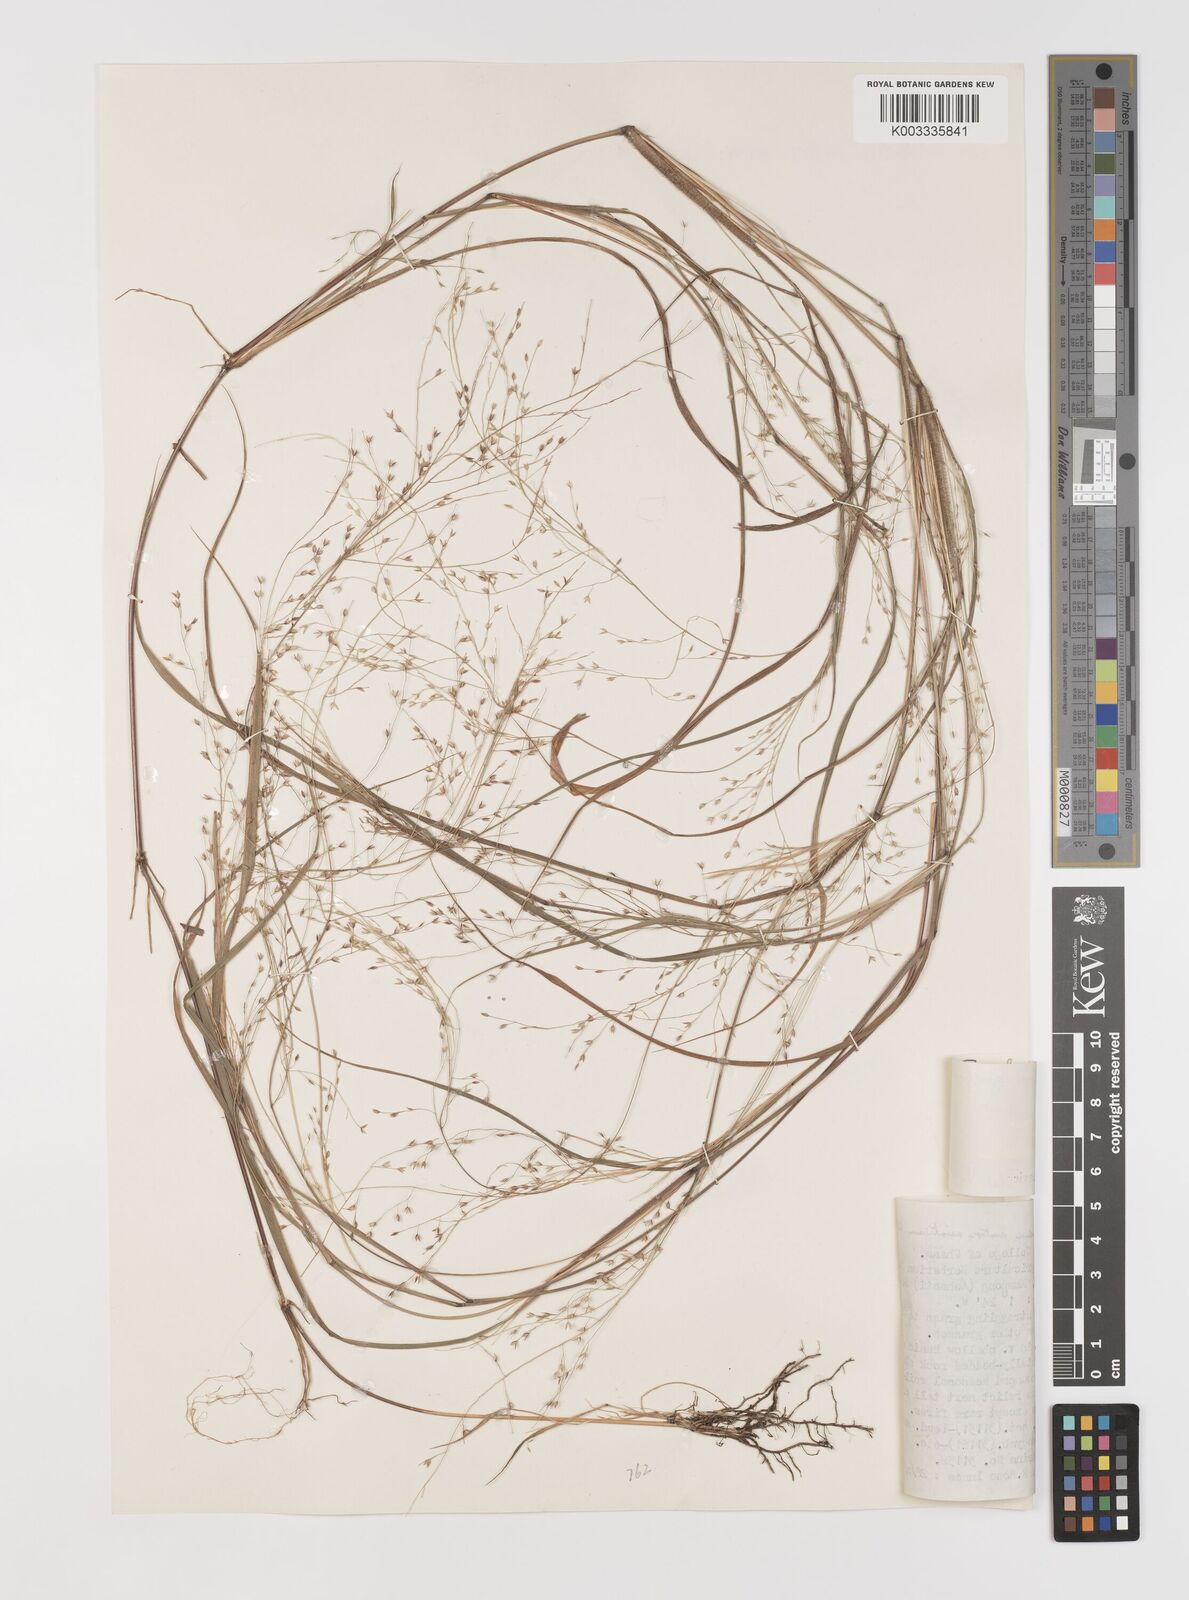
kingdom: Plantae
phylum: Tracheophyta
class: Liliopsida
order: Poales
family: Poaceae
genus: Panicum
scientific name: Panicum griffonii
